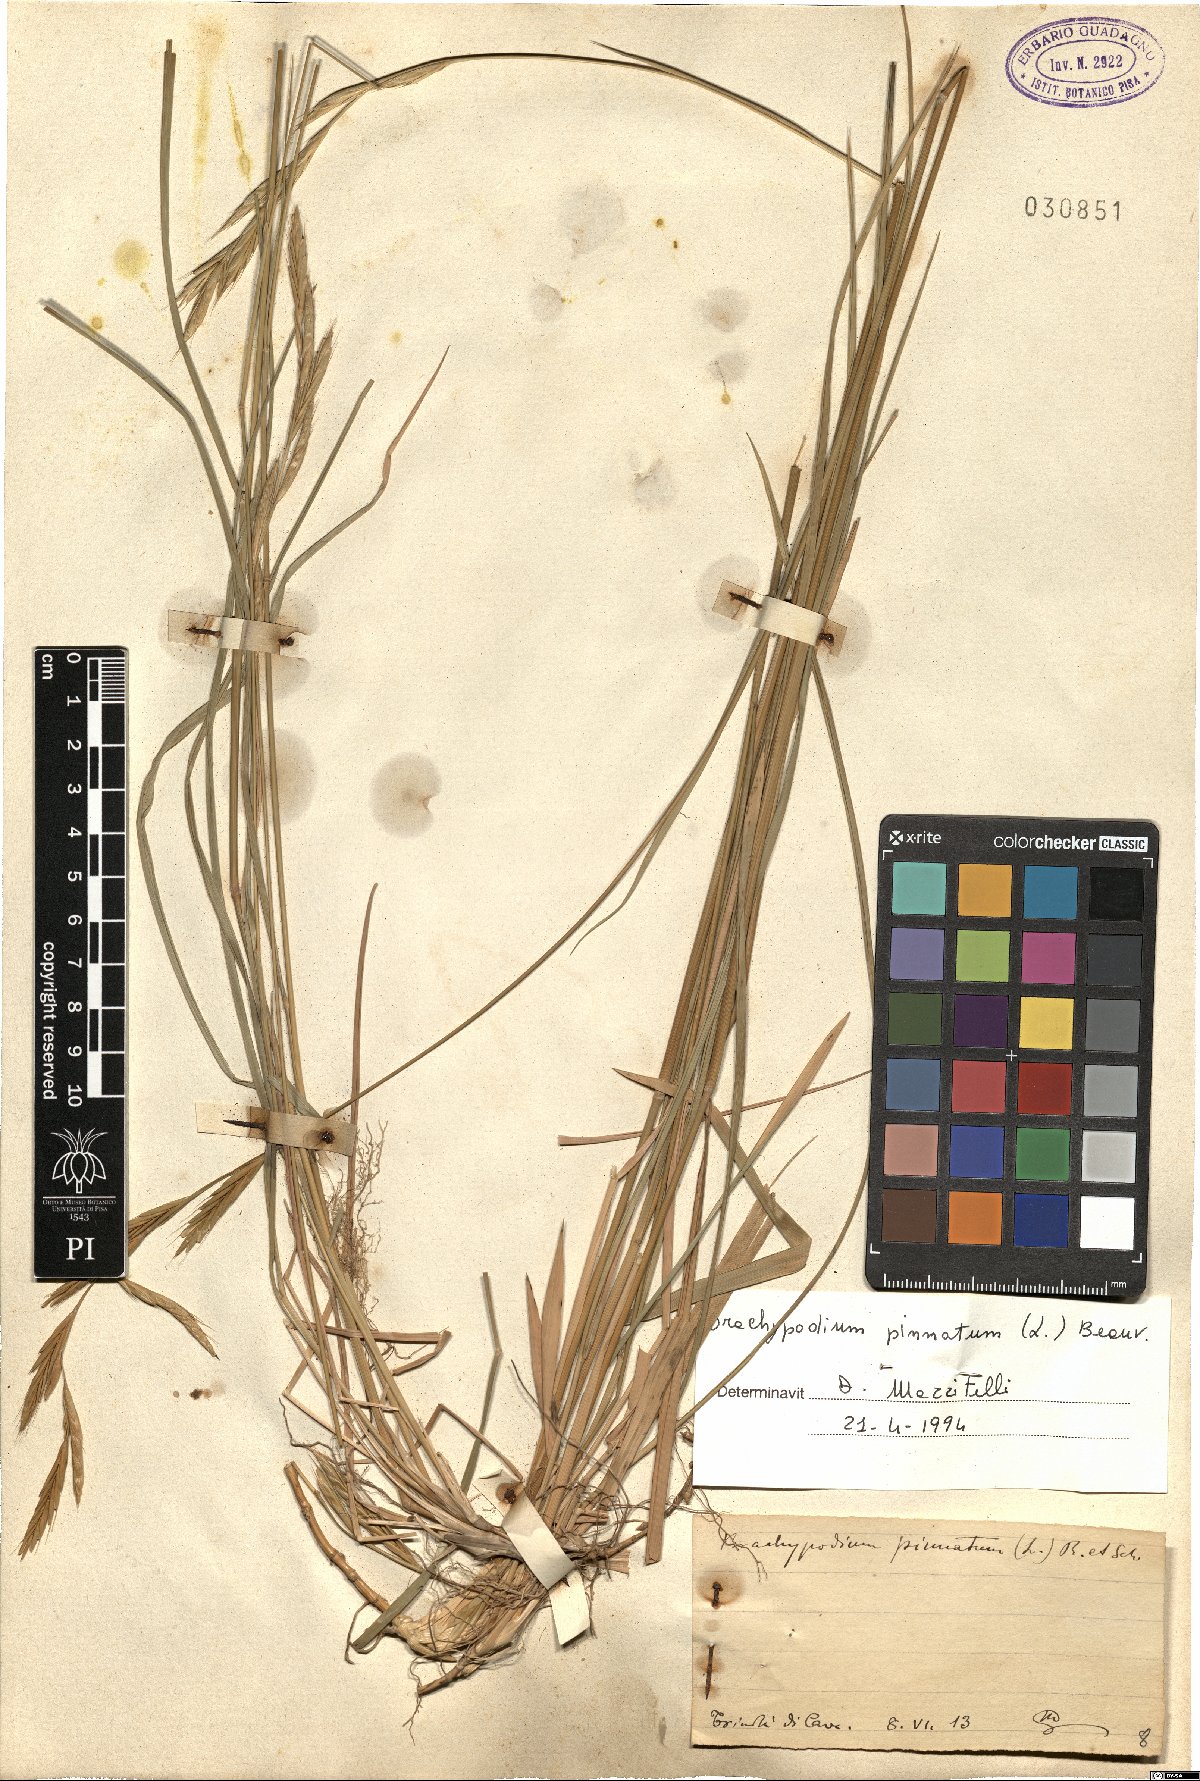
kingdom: Plantae
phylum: Tracheophyta
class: Liliopsida
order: Poales
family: Poaceae
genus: Brachypodium
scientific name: Brachypodium pinnatum
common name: Tor grass
